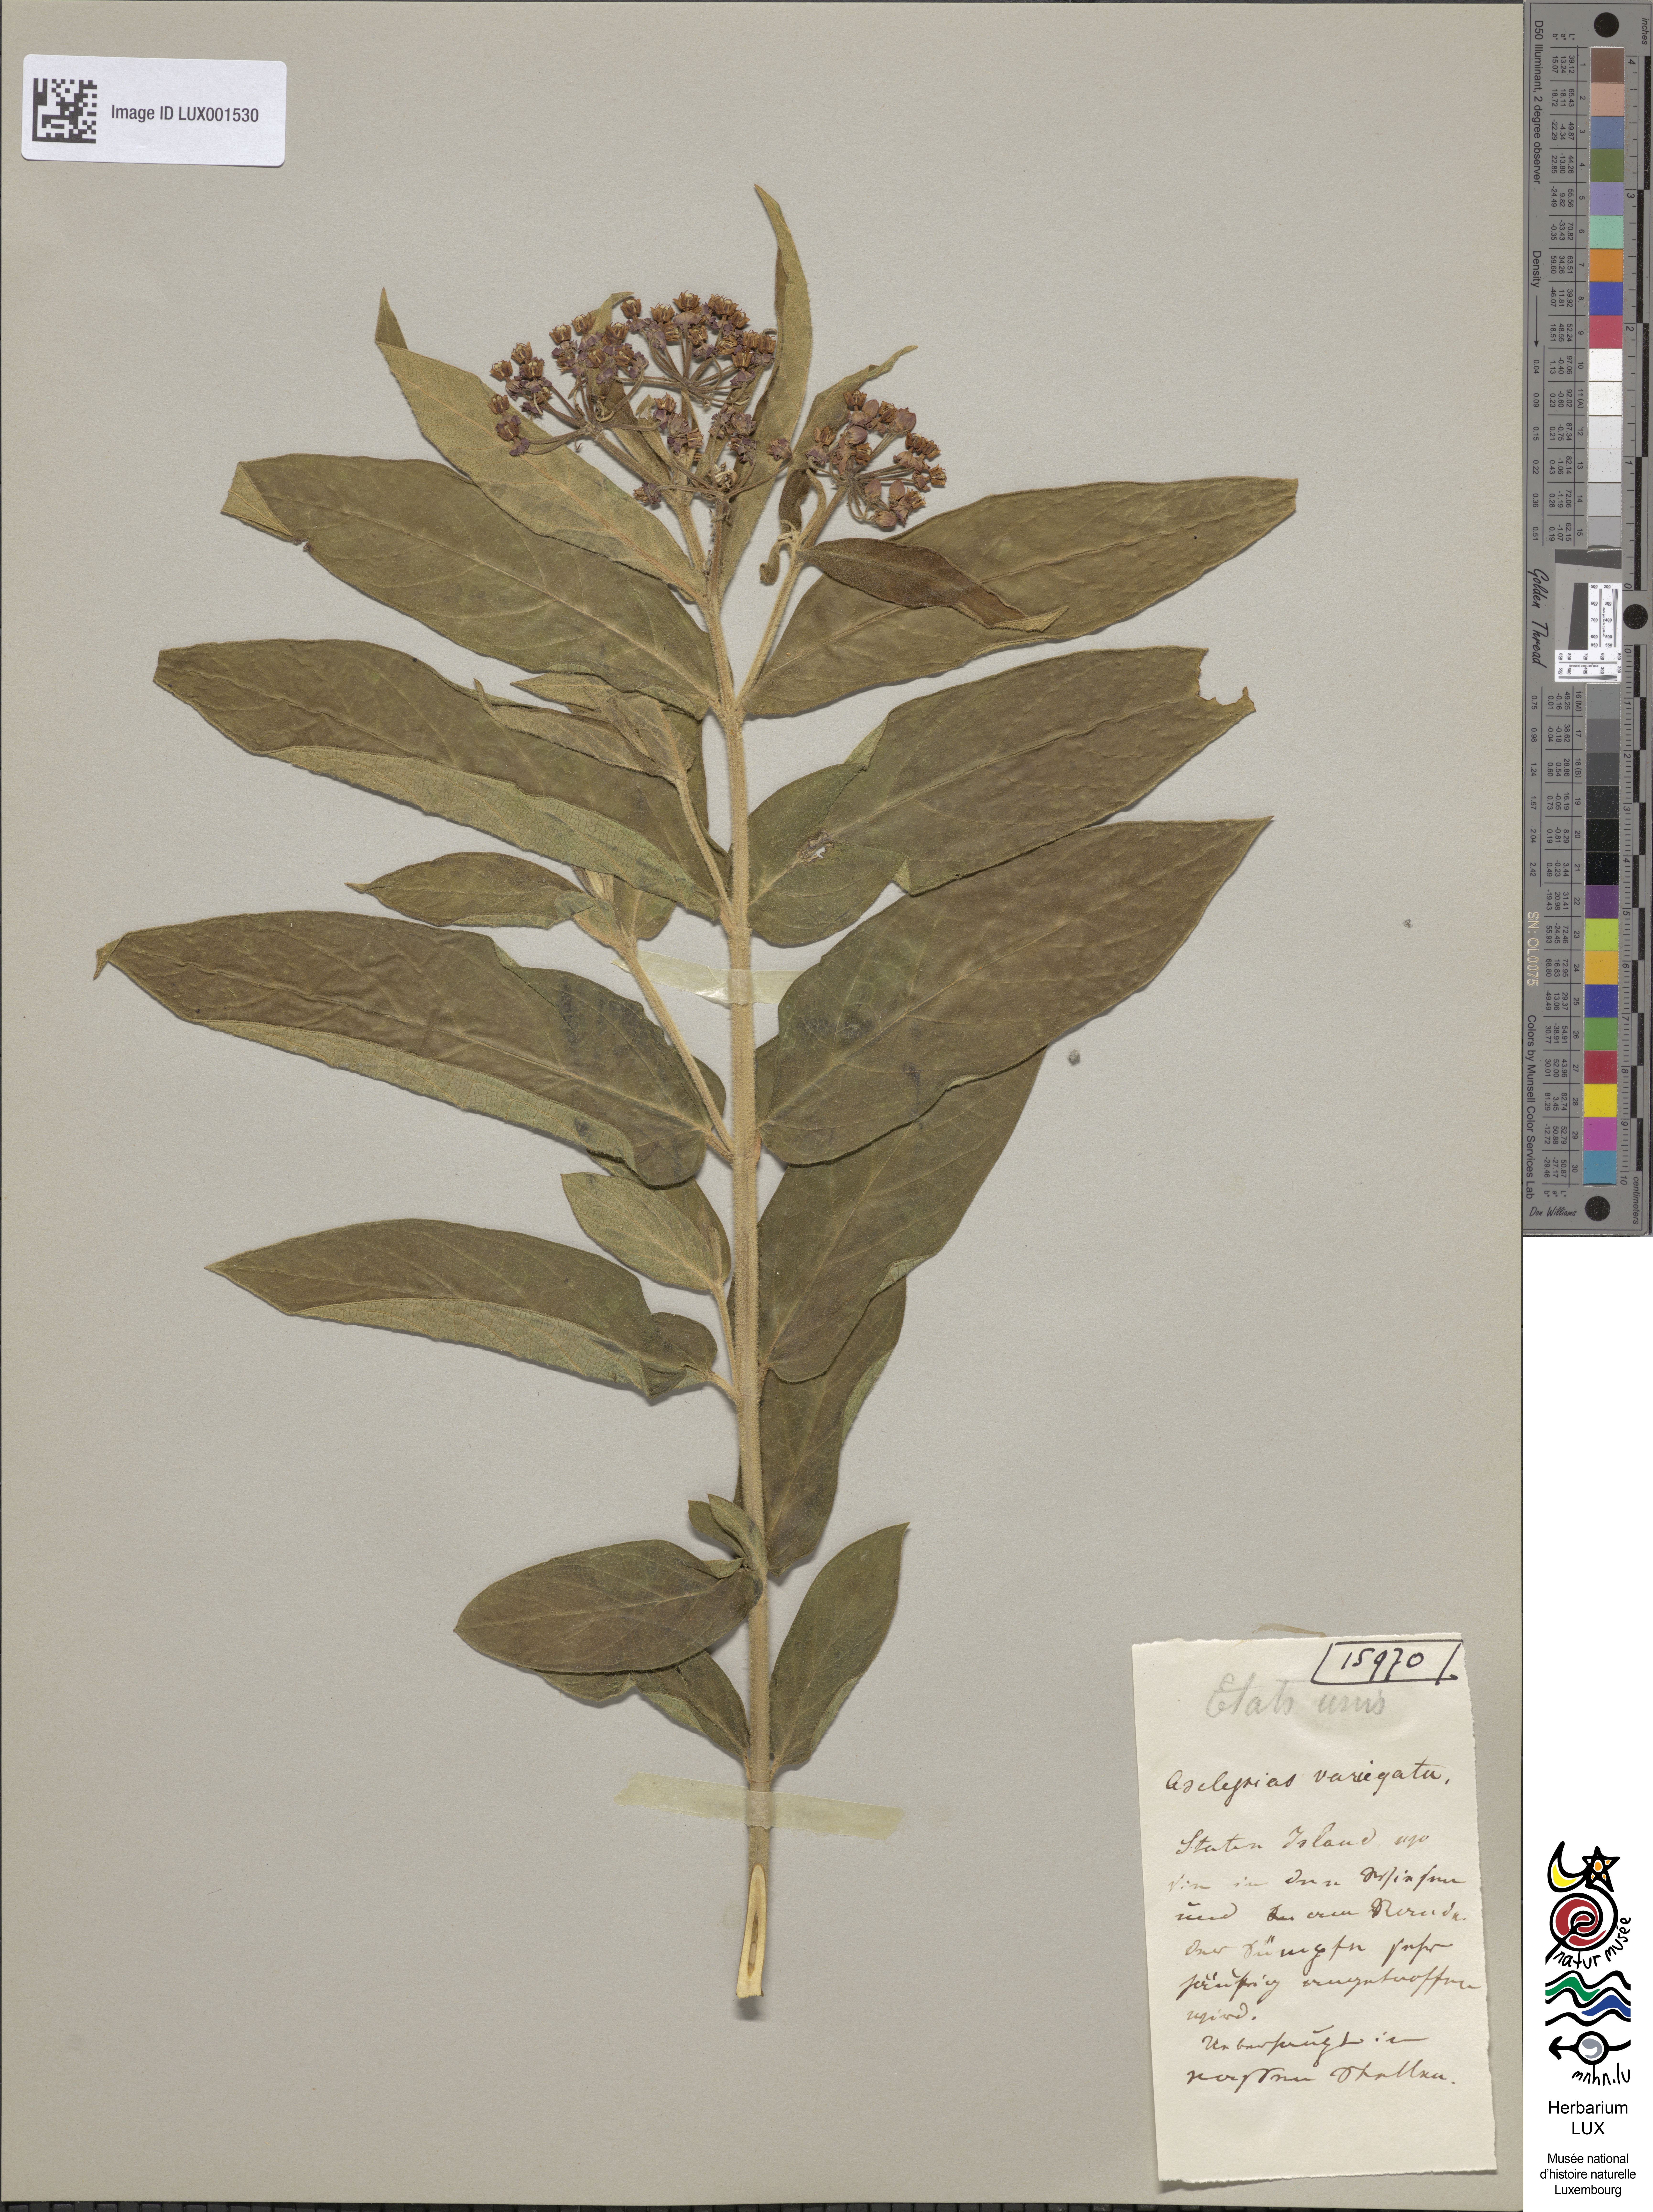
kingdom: Plantae
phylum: Tracheophyta
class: Magnoliopsida
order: Gentianales
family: Apocynaceae
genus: Asclepias
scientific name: Asclepias variegata
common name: Variegated milkweed
